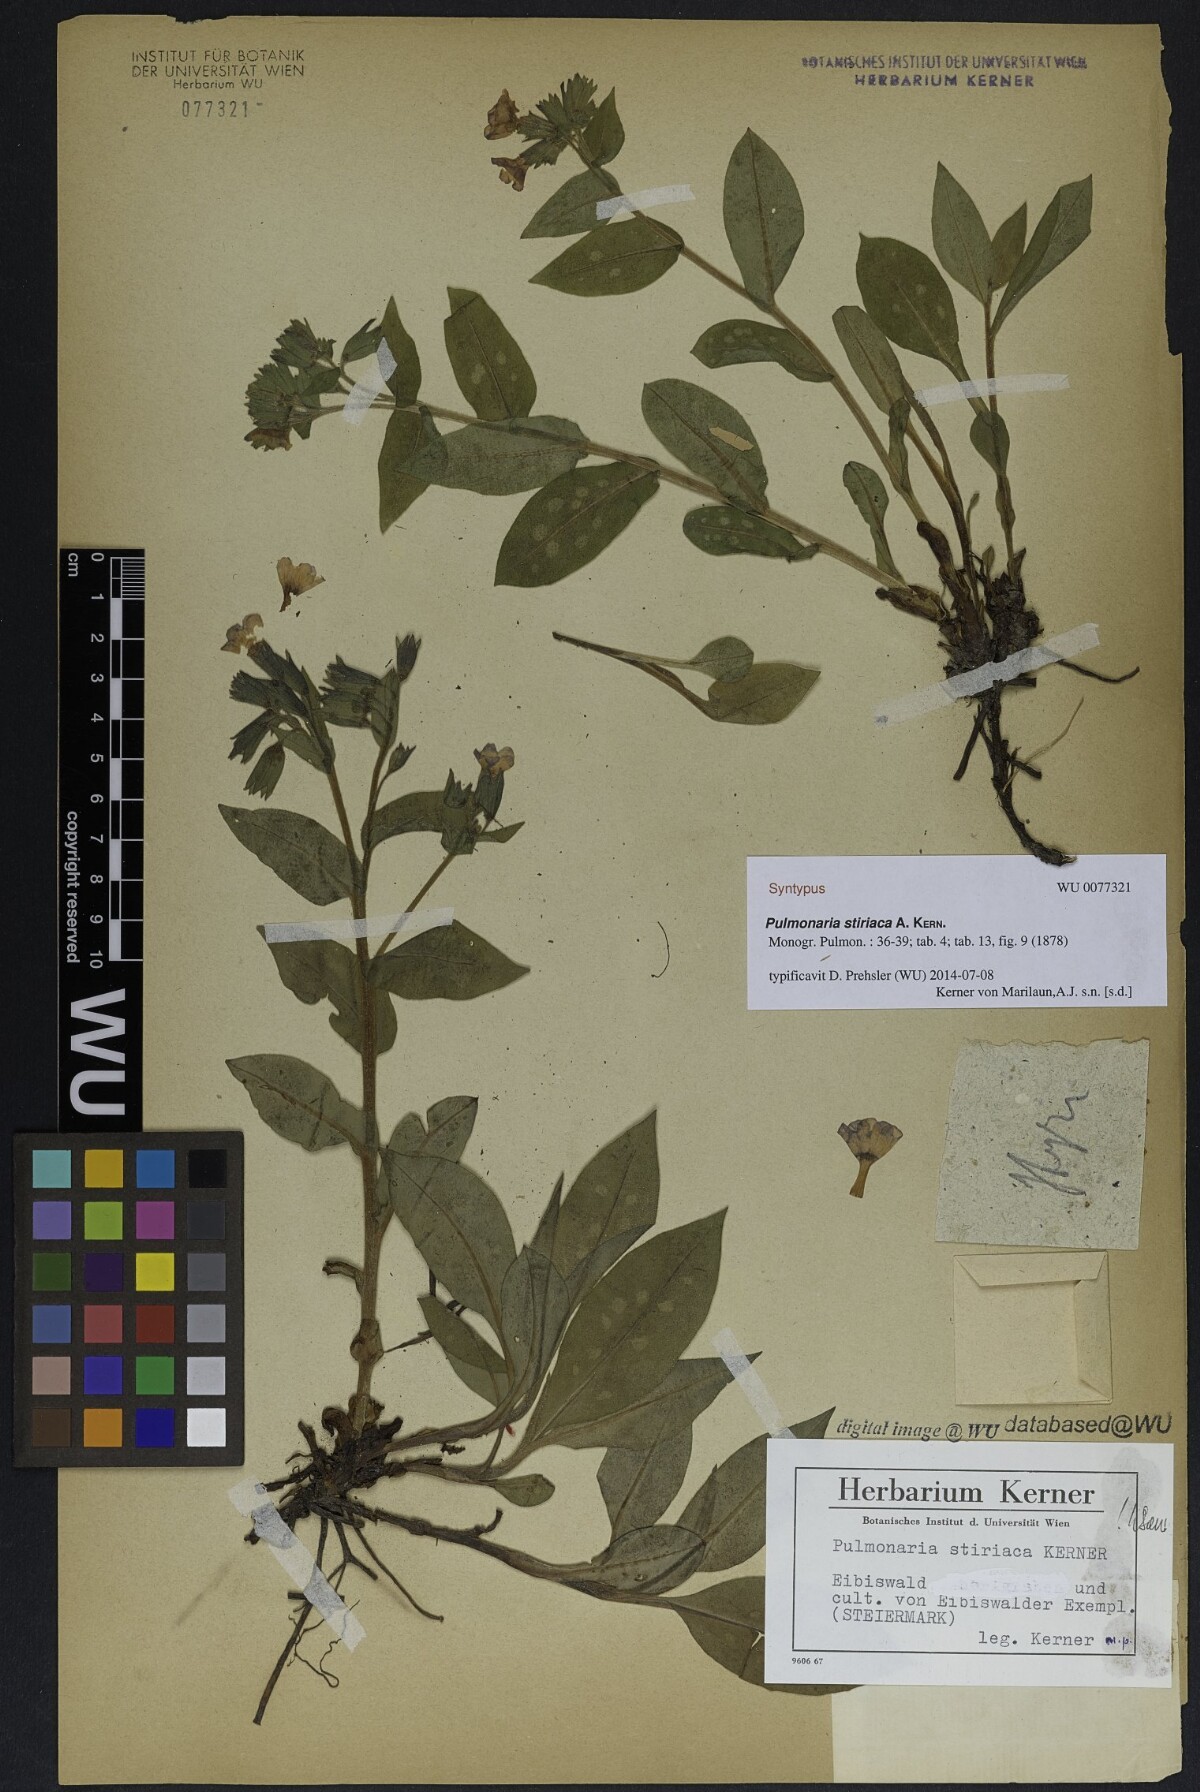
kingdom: Plantae
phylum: Tracheophyta
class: Magnoliopsida
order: Boraginales
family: Boraginaceae
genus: Pulmonaria
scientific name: Pulmonaria stiriaca
